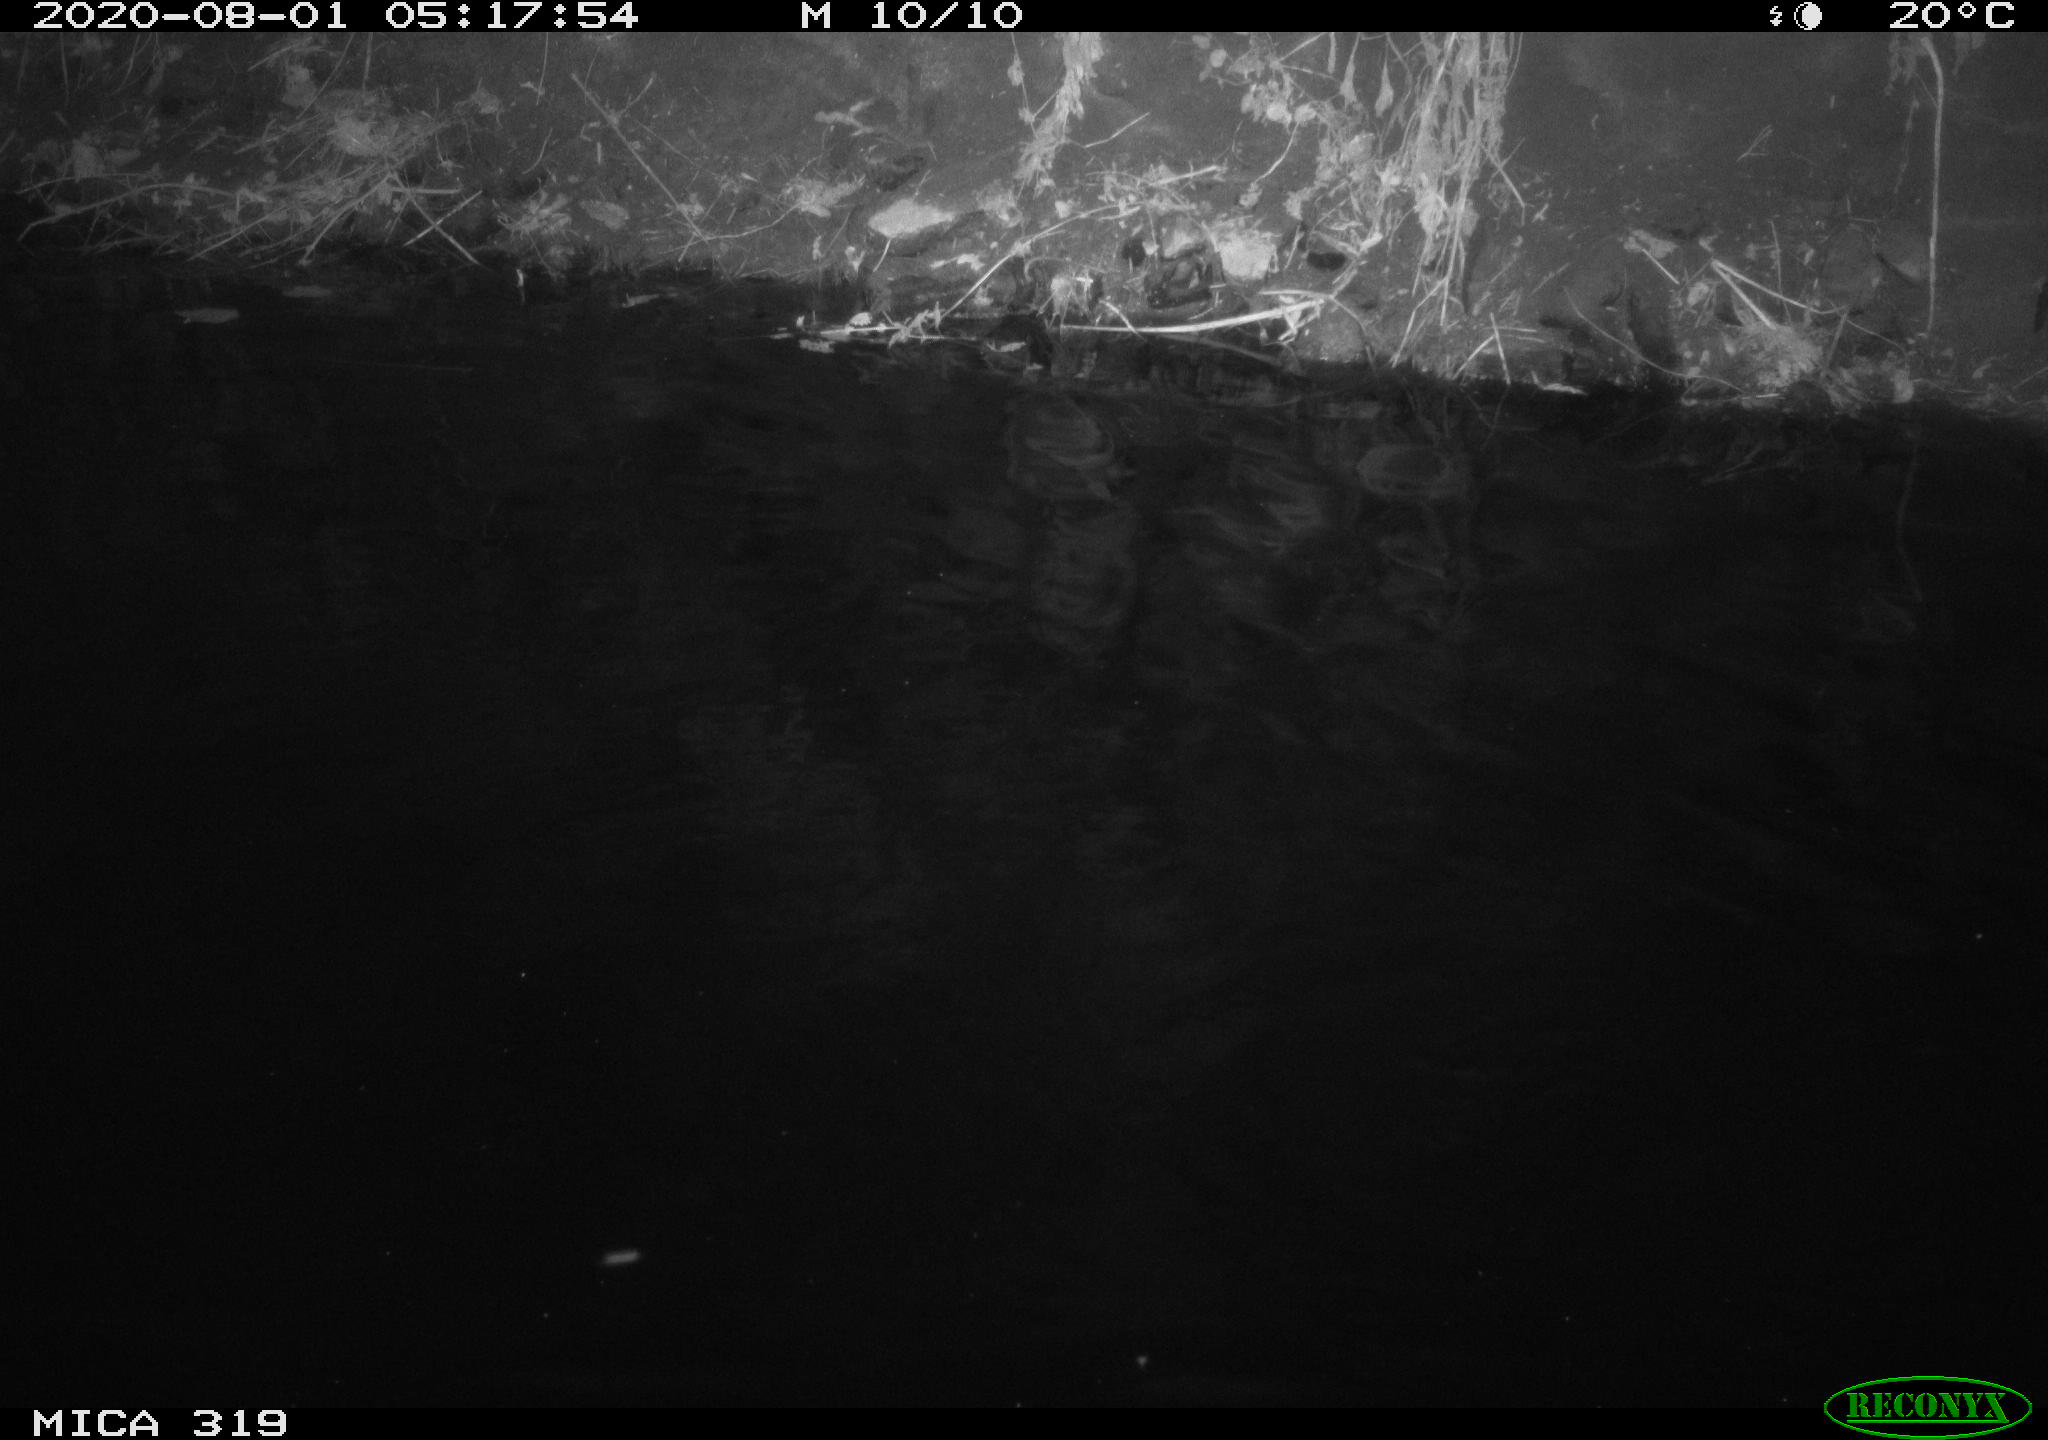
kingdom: Animalia
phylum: Chordata
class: Aves
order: Anseriformes
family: Anatidae
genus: Anas
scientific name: Anas platyrhynchos
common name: Mallard
